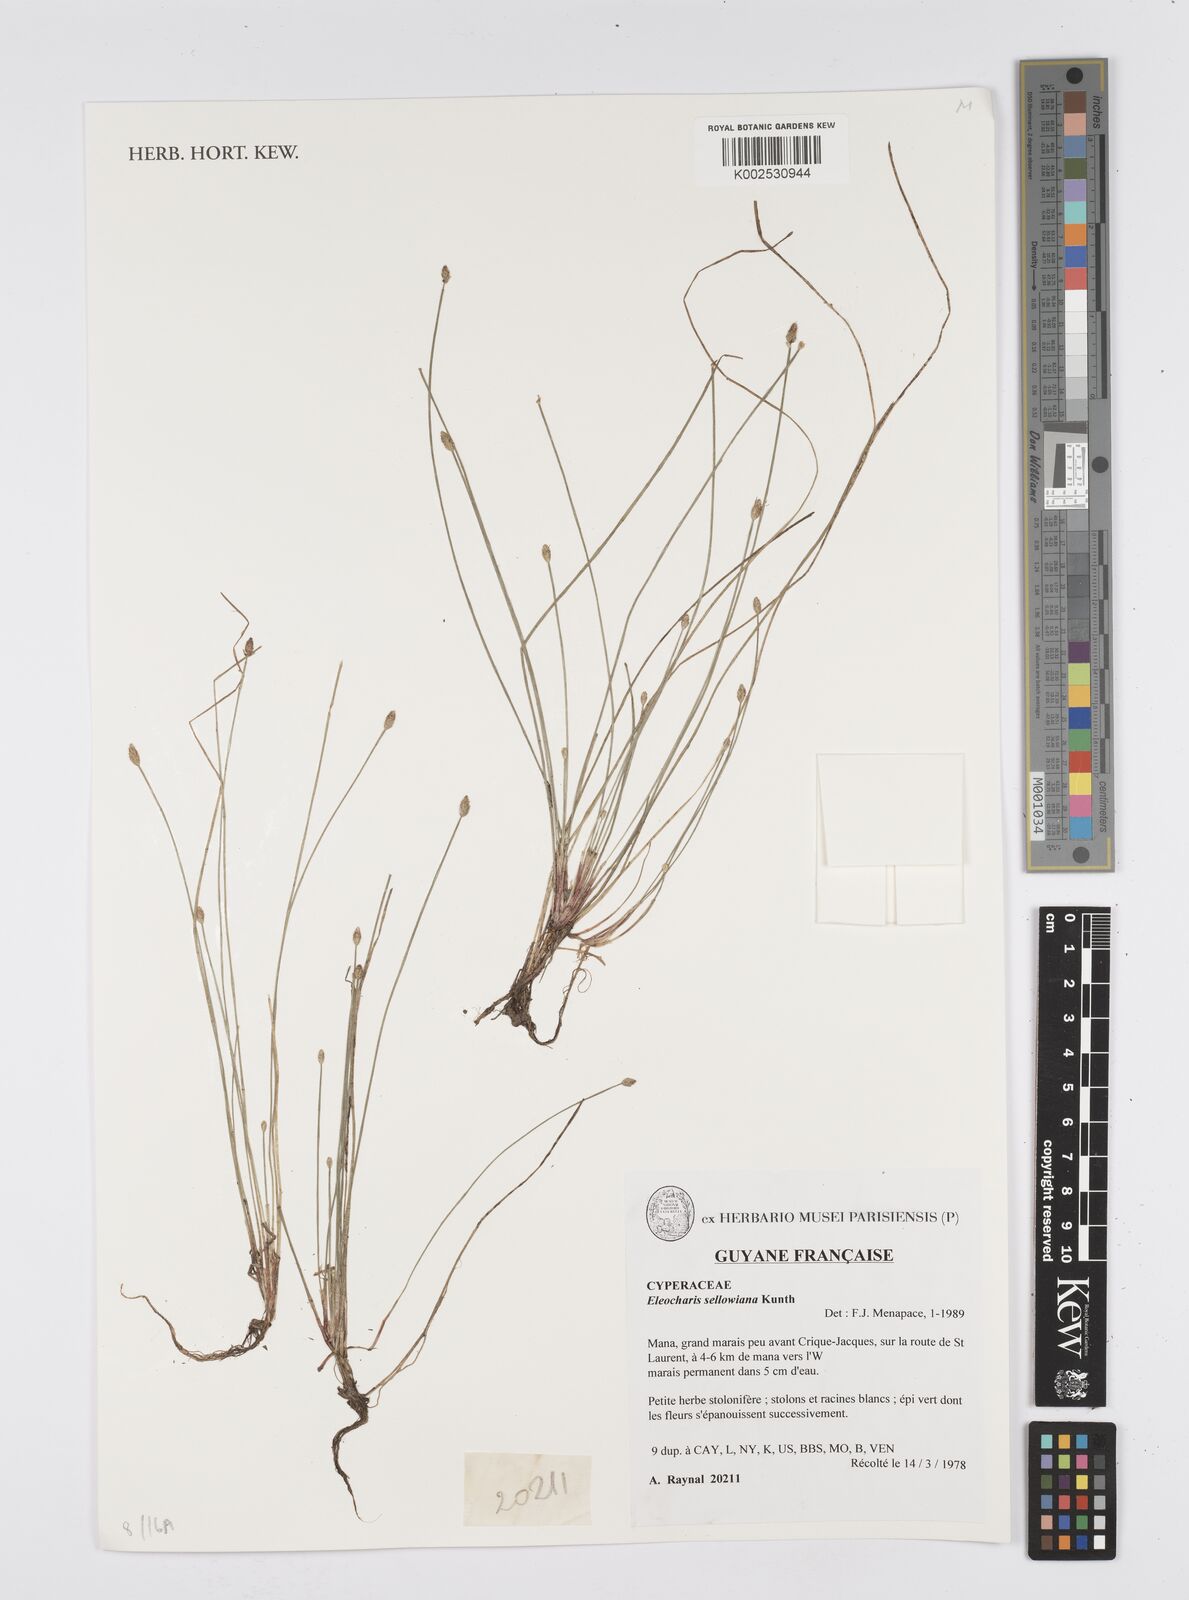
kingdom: Plantae
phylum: Tracheophyta
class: Liliopsida
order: Poales
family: Cyperaceae
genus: Eleocharis
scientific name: Eleocharis sellowiana
